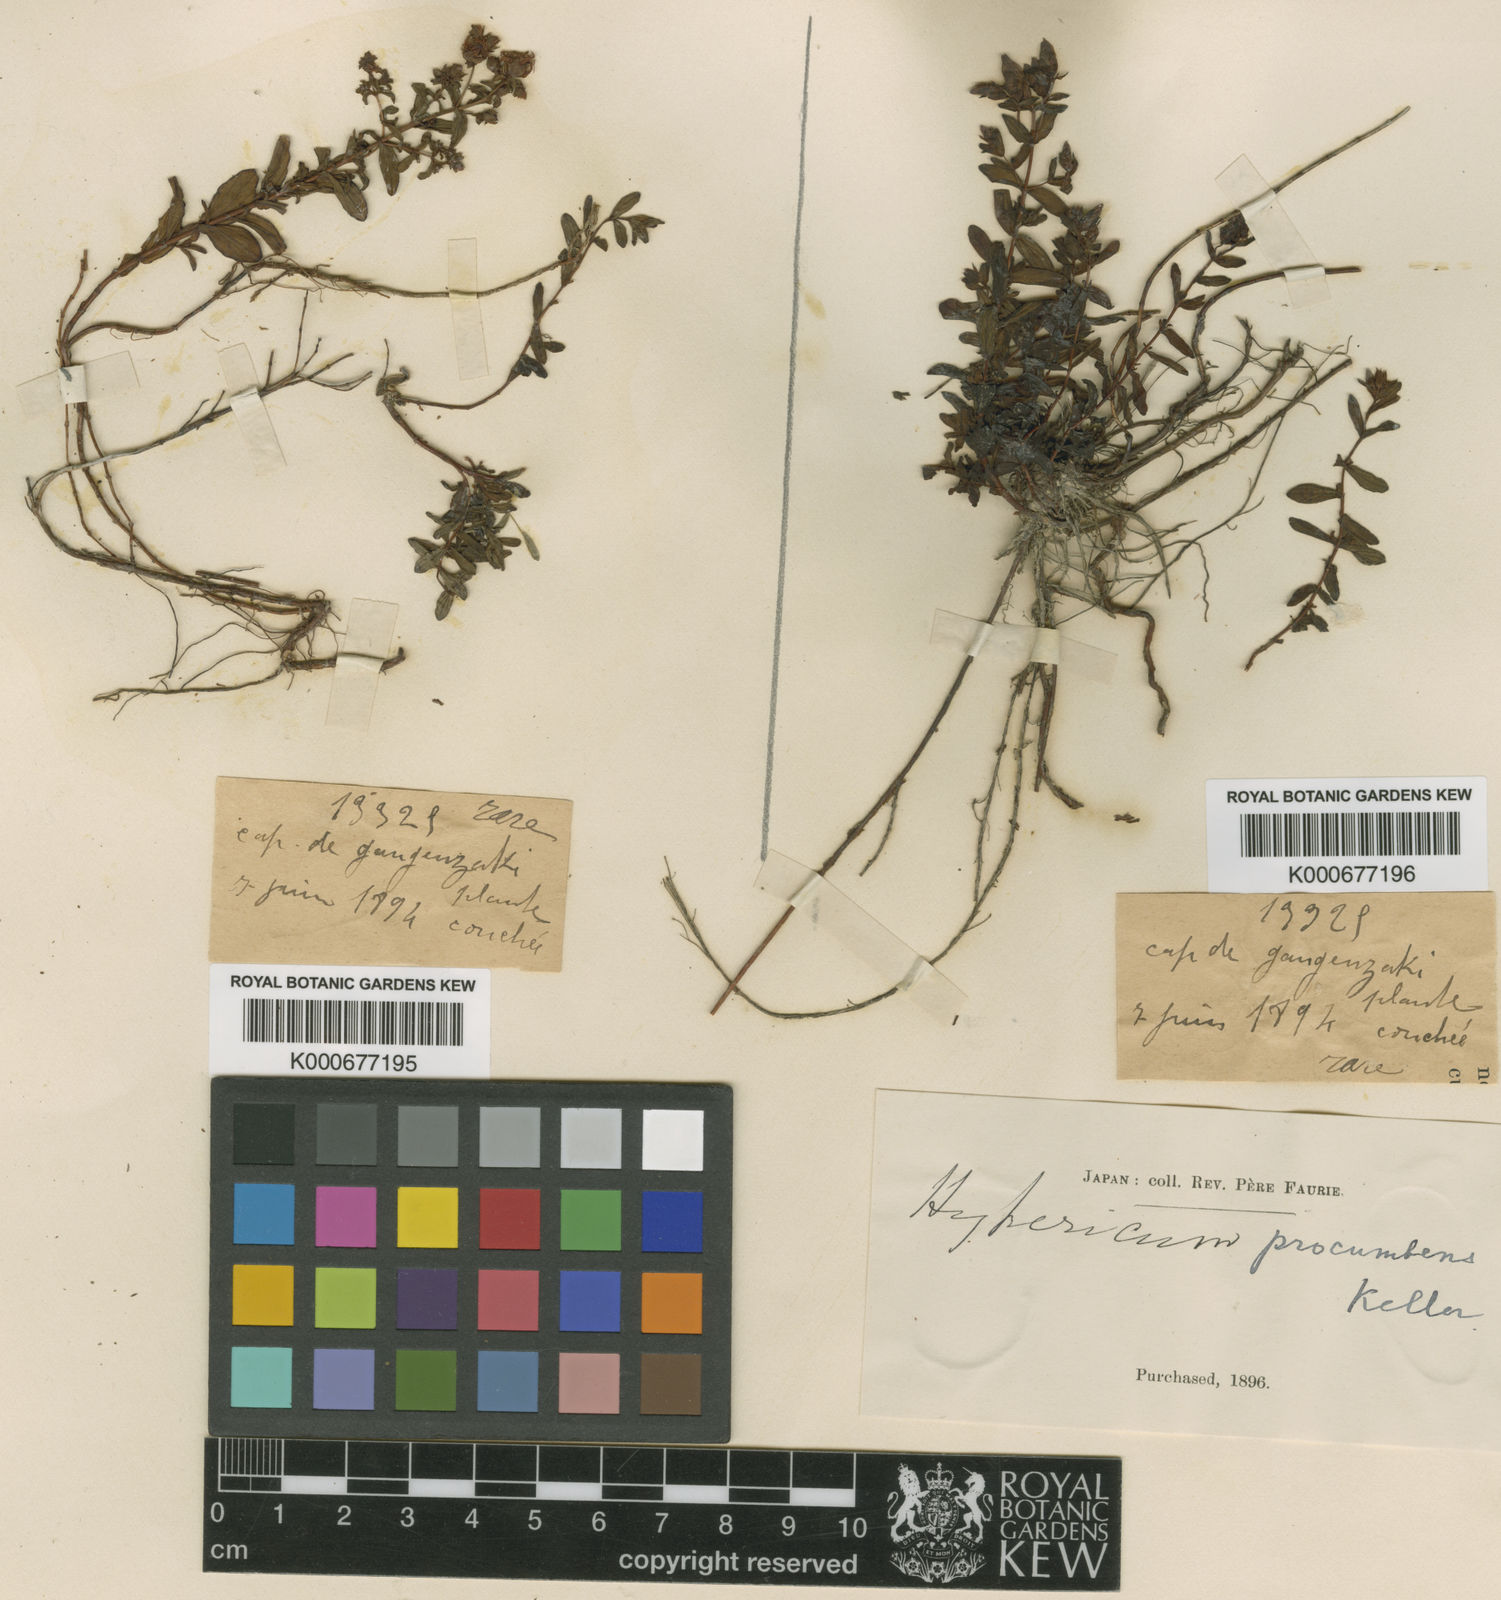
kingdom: Plantae
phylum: Tracheophyta
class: Magnoliopsida
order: Malpighiales
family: Hypericaceae
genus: Hypericum
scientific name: Hypericum yezoense
